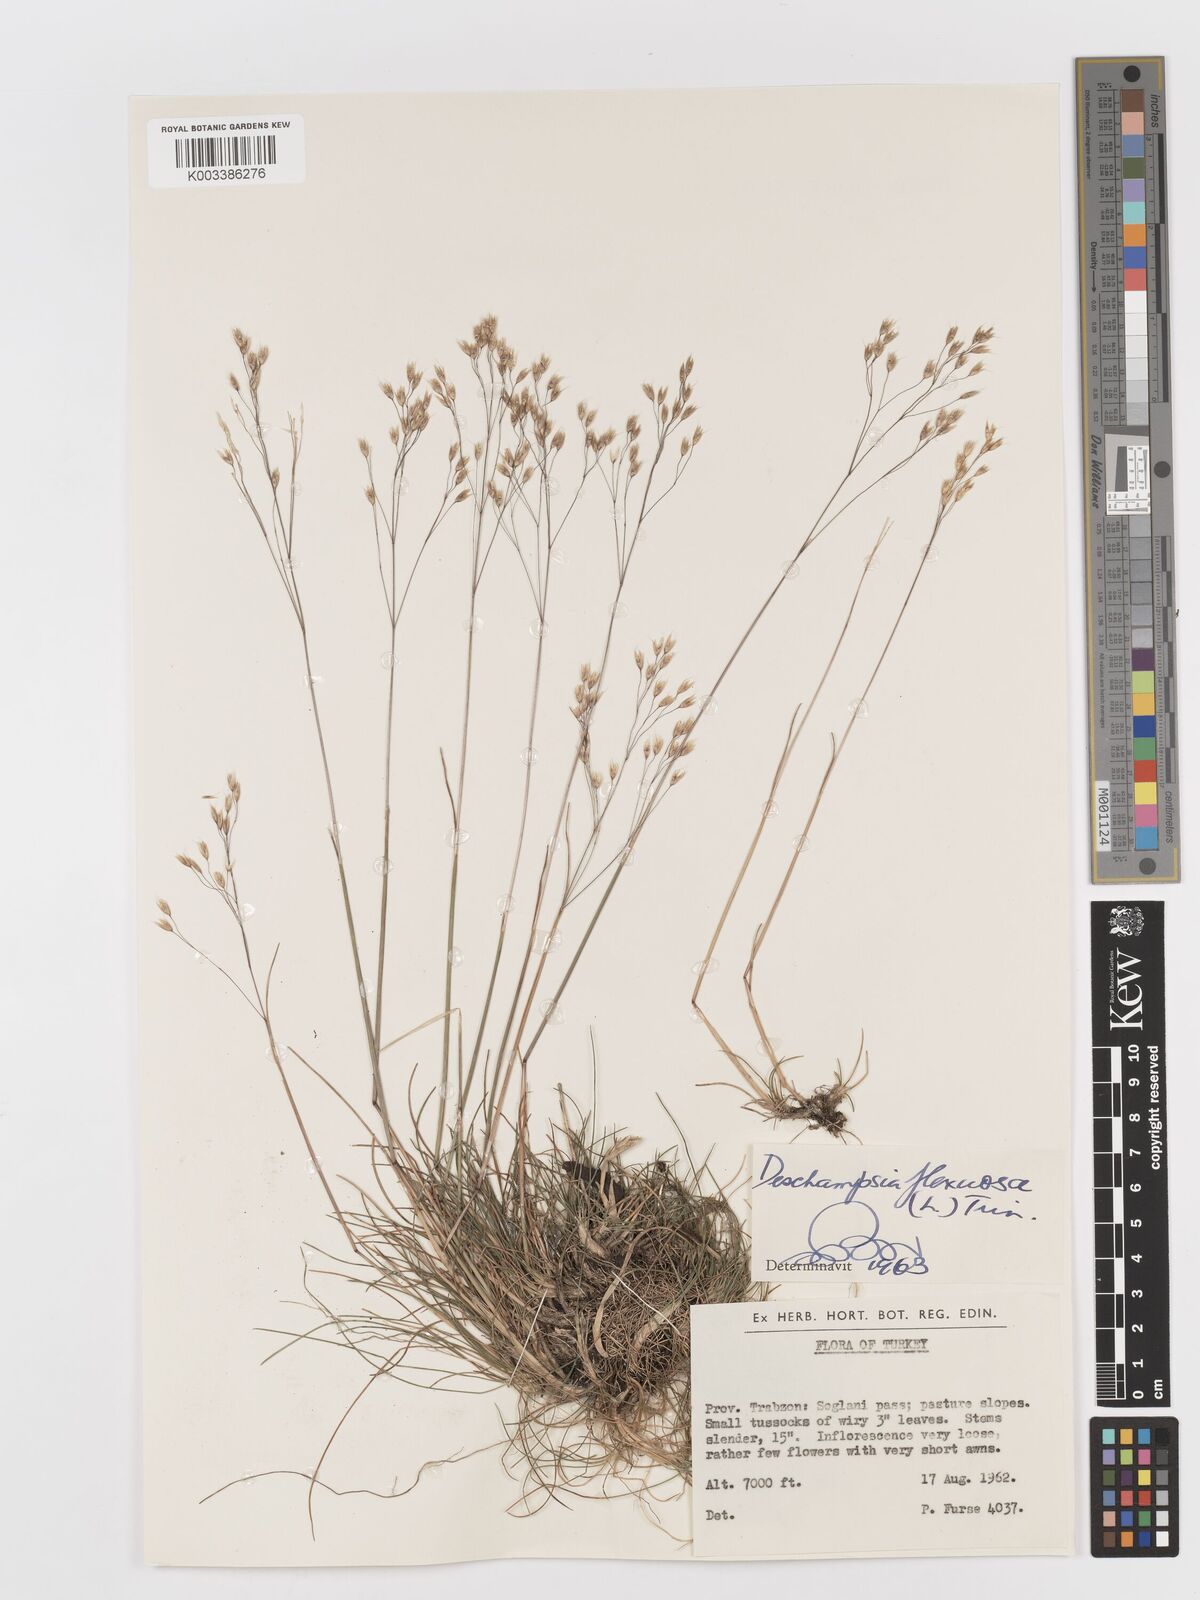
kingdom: Plantae
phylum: Tracheophyta
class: Liliopsida
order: Poales
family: Poaceae
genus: Avenella
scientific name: Avenella flexuosa
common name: Wavy hairgrass
